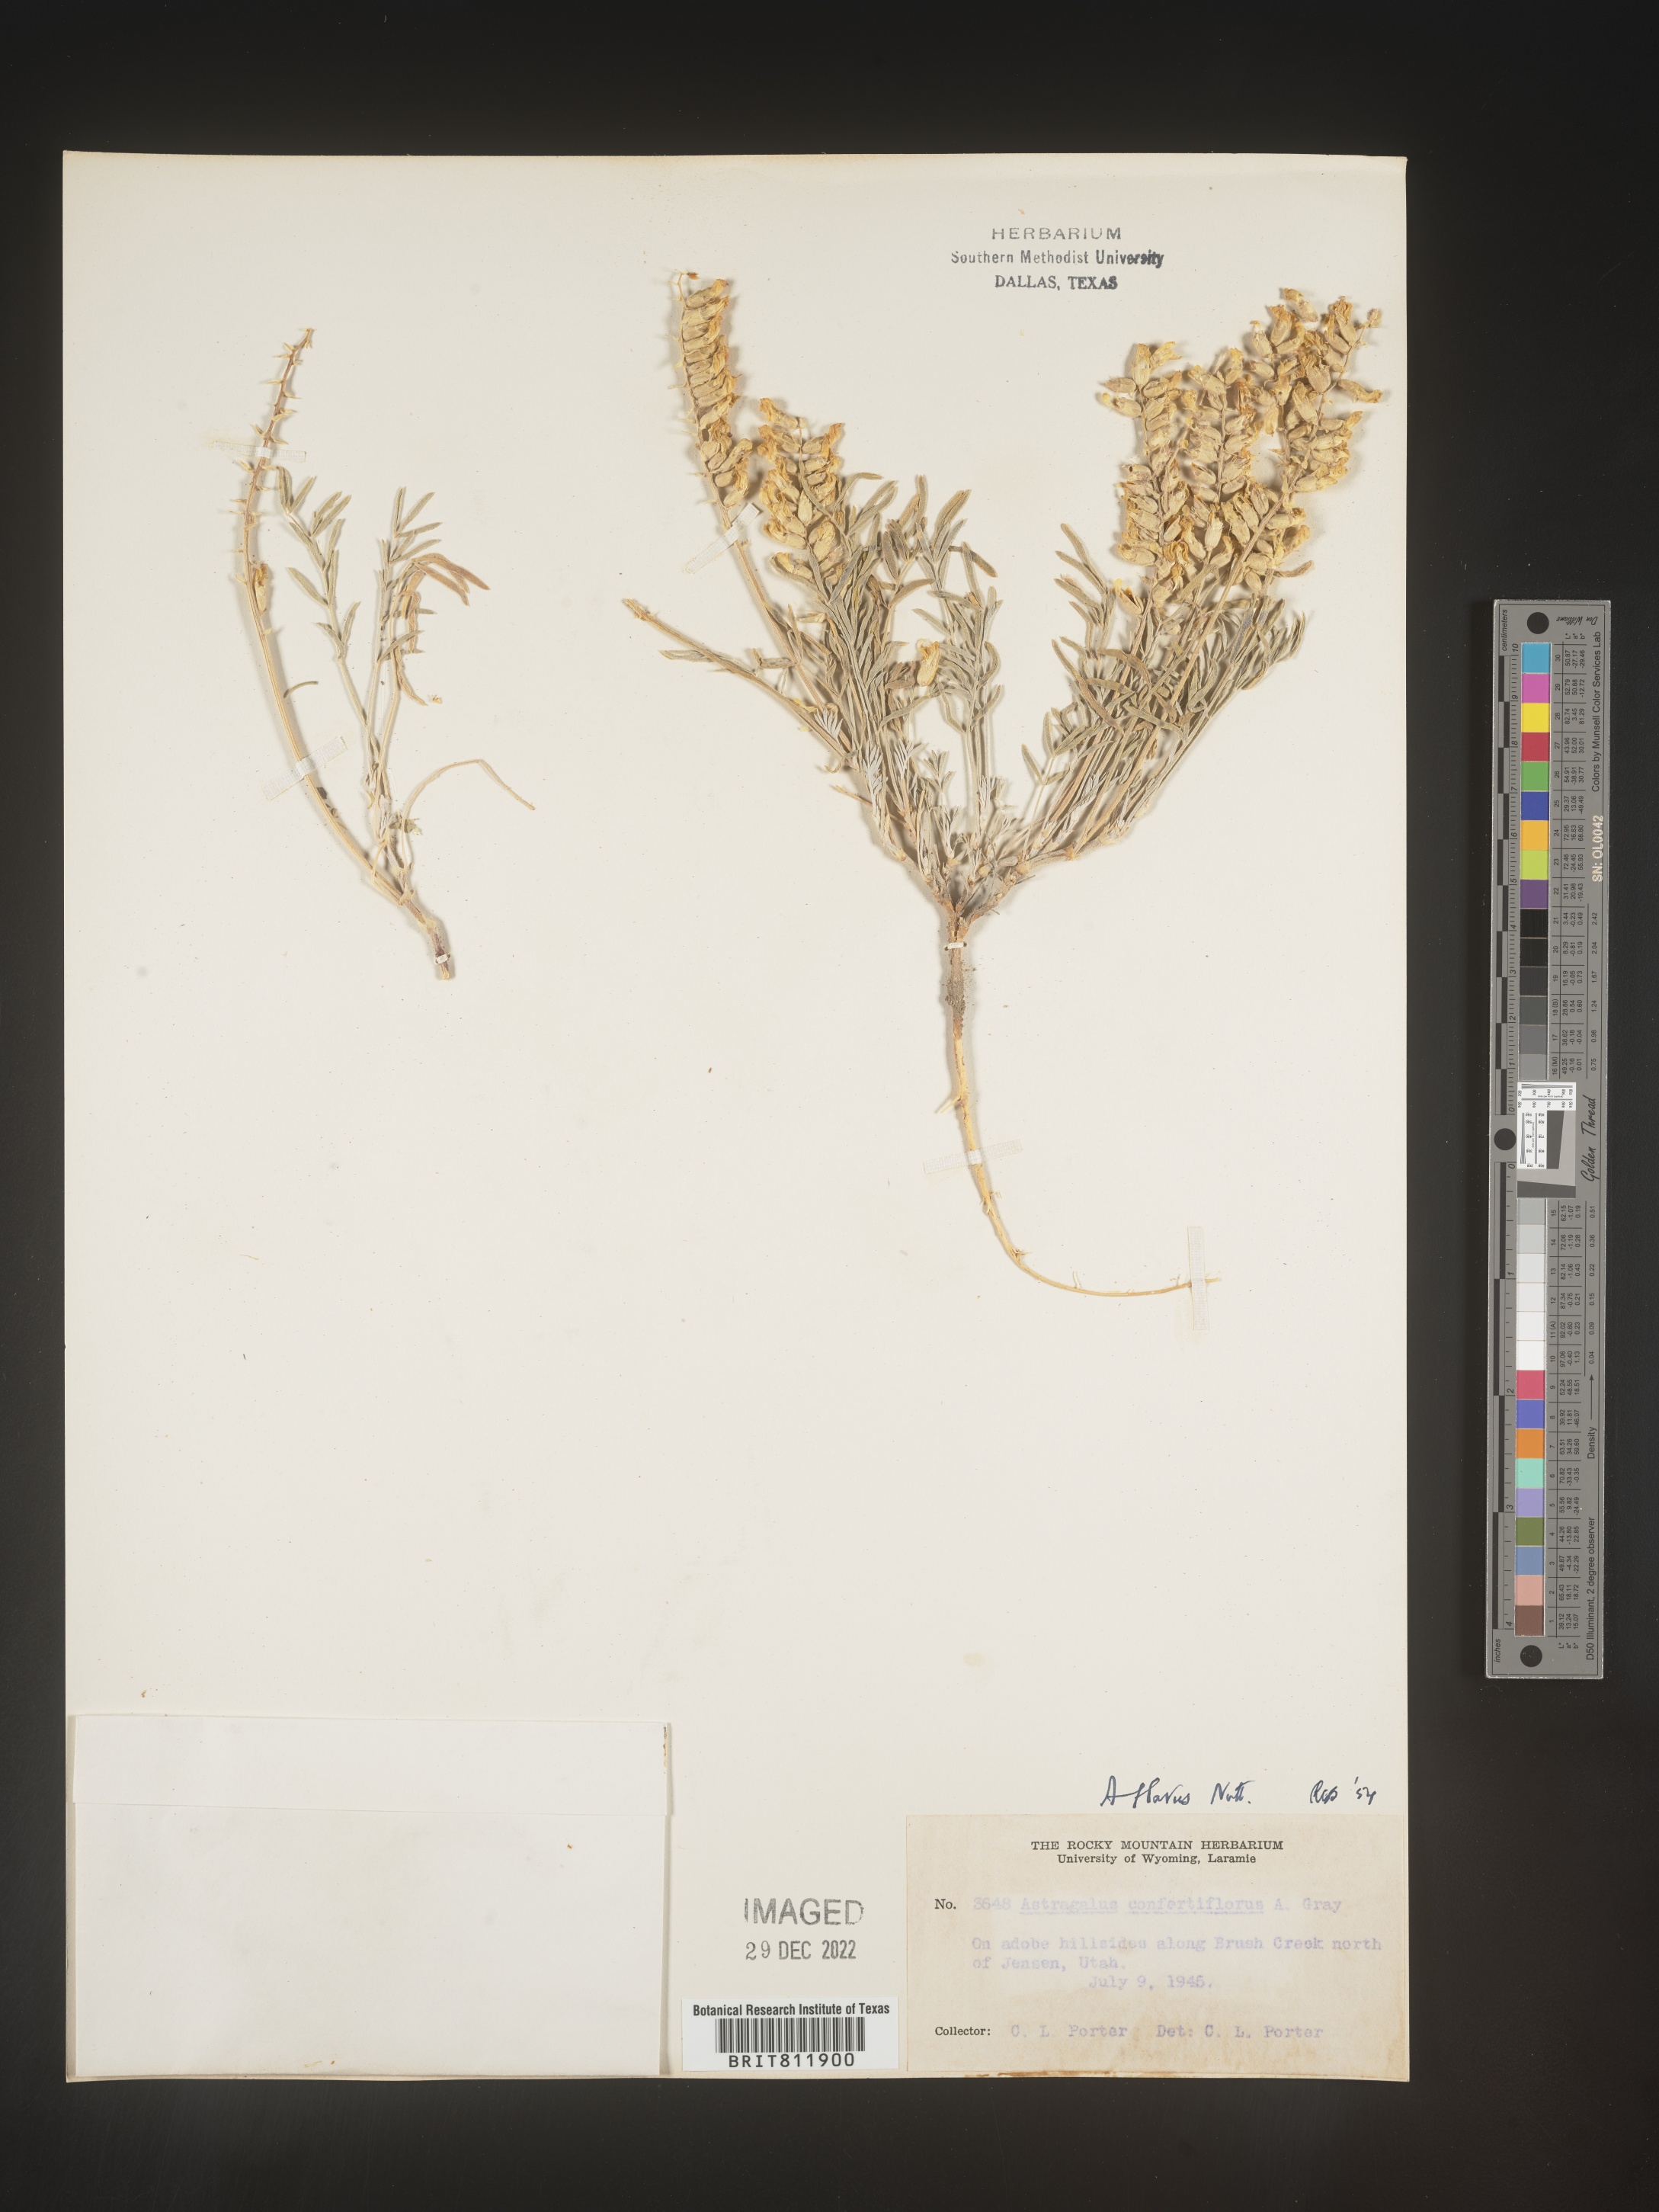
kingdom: Plantae
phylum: Tracheophyta
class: Magnoliopsida
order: Fabales
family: Fabaceae
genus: Astragalus
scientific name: Astragalus
